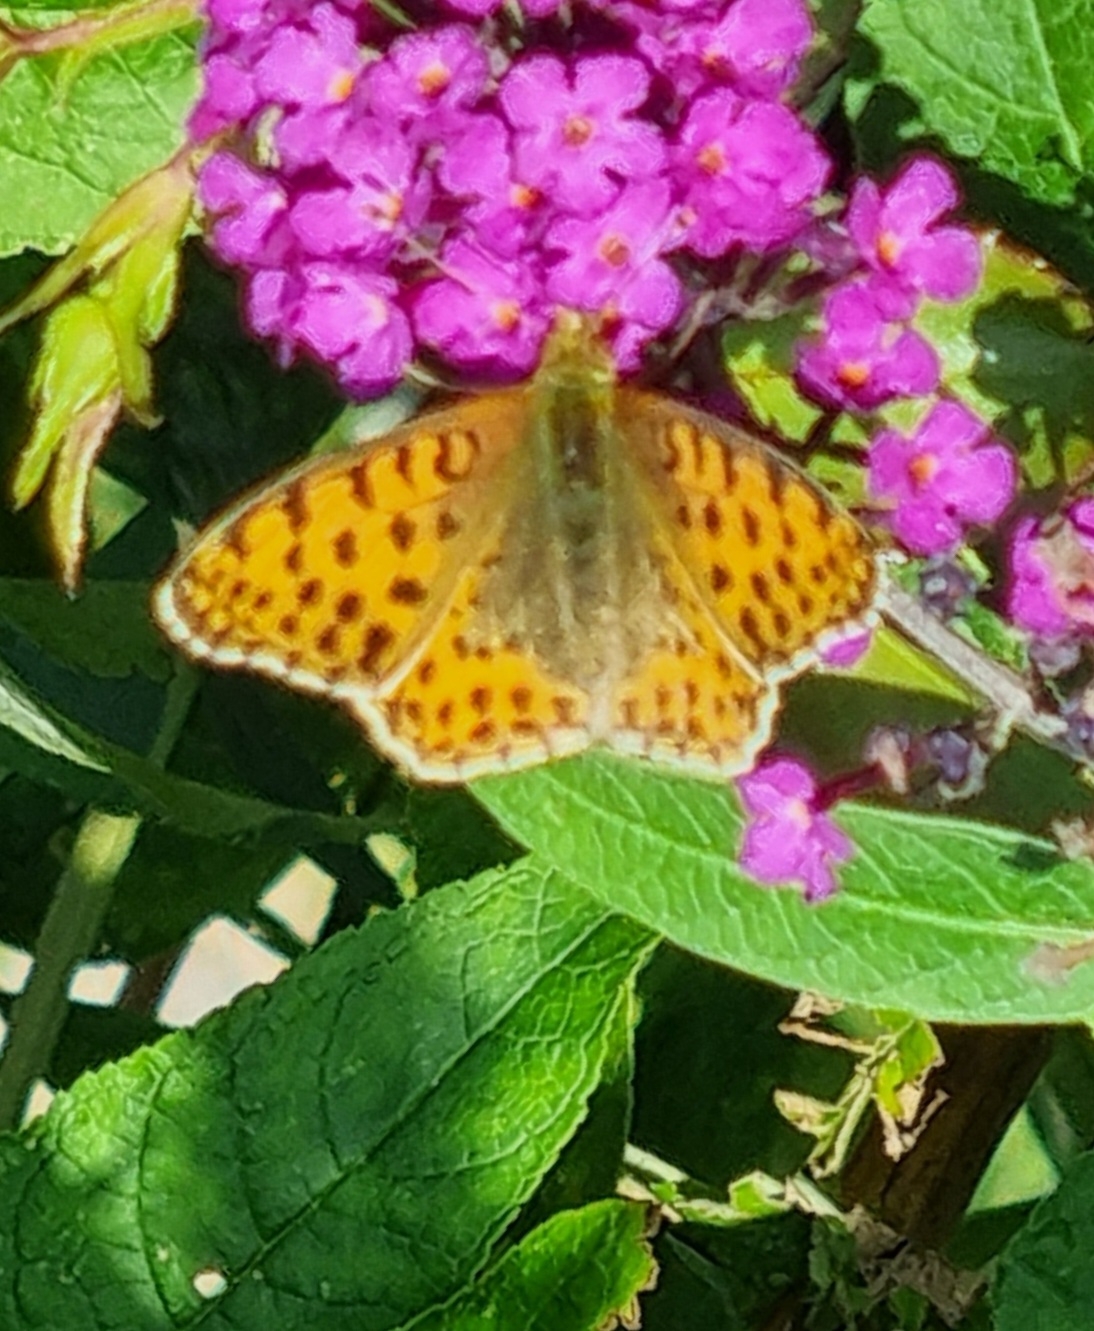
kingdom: Animalia
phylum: Arthropoda
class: Insecta
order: Lepidoptera
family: Nymphalidae
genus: Issoria
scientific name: Issoria lathonia
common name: Storplettet perlemorsommerfugl
